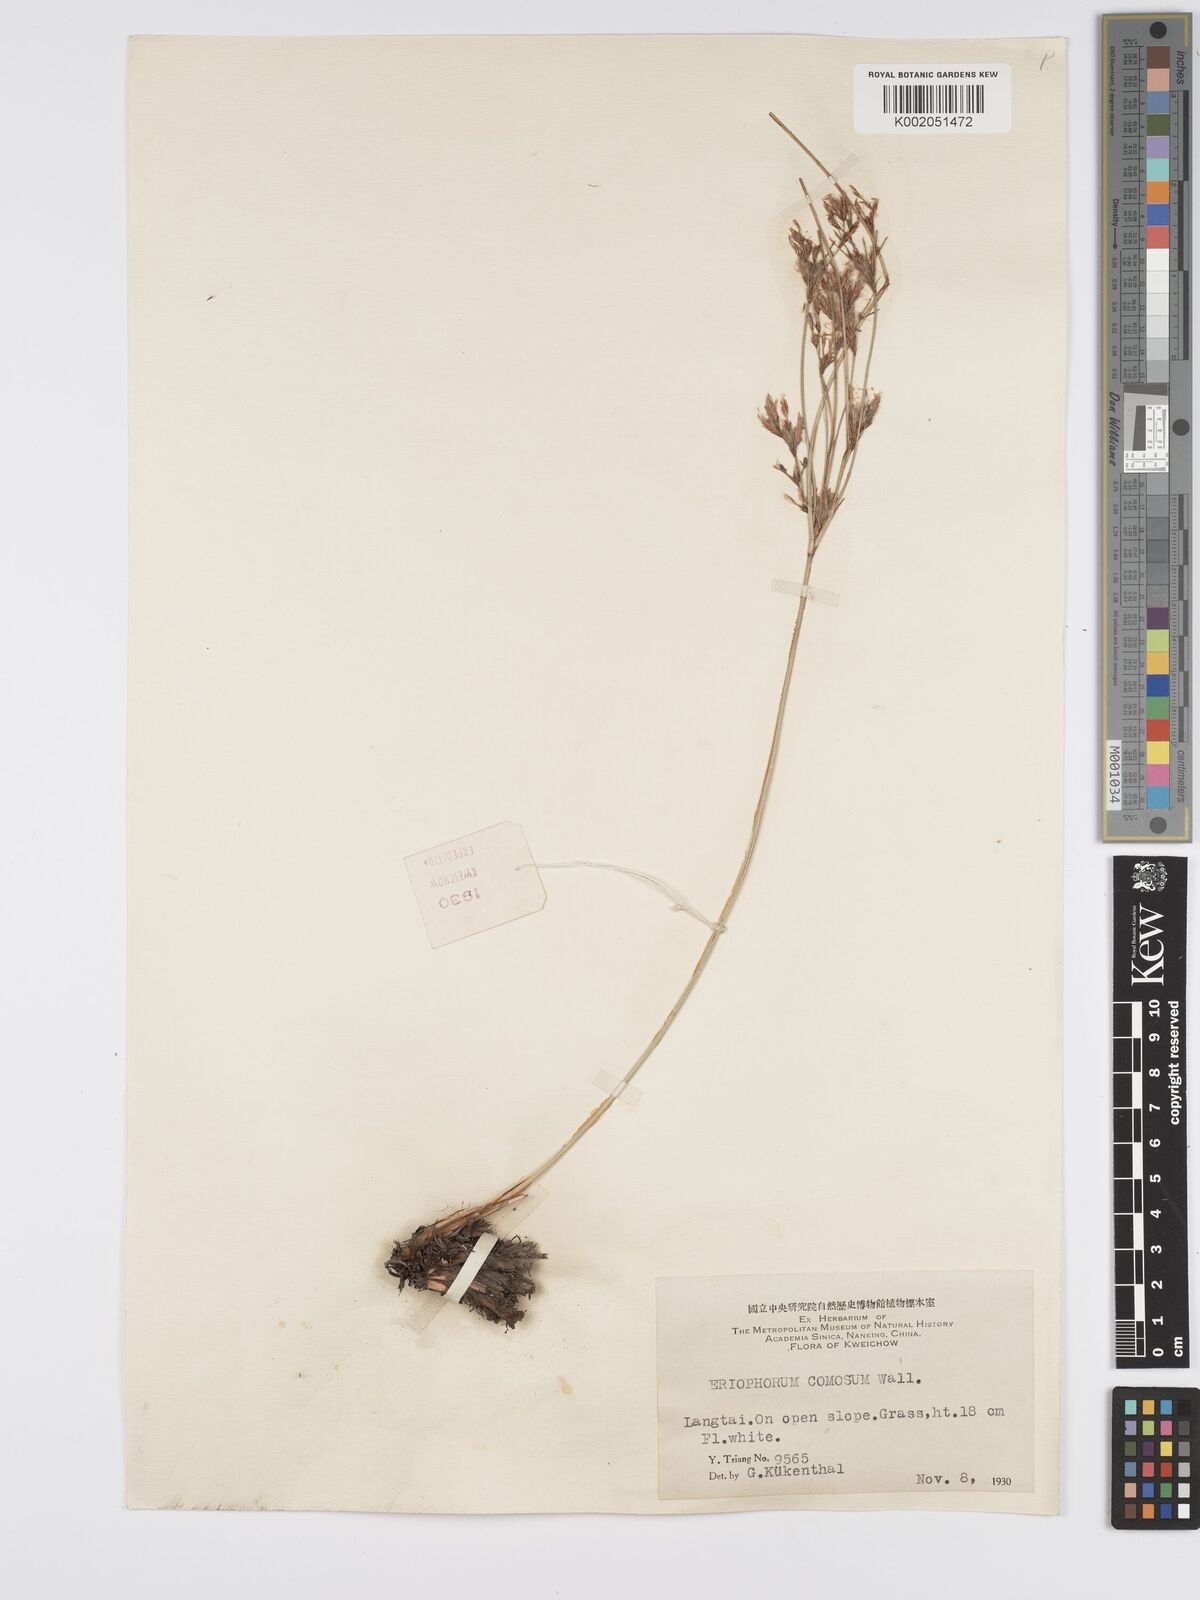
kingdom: Plantae
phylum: Tracheophyta
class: Liliopsida
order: Poales
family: Cyperaceae
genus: Erioscirpus
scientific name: Erioscirpus comosus
